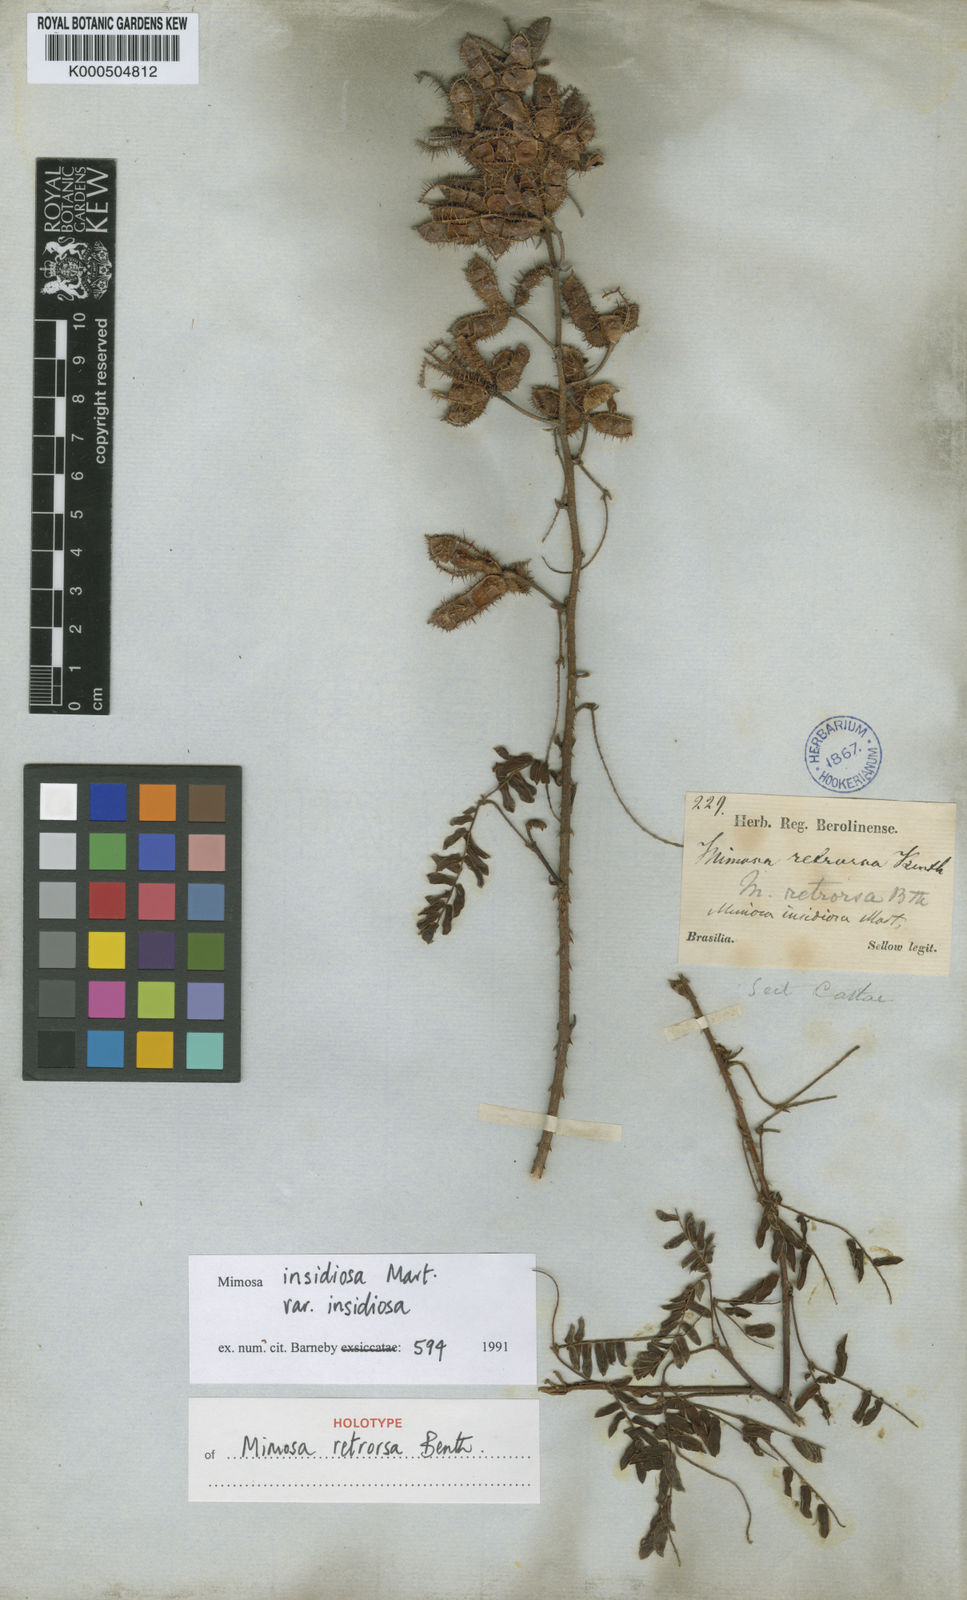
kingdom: Plantae
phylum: Tracheophyta
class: Magnoliopsida
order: Fabales
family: Fabaceae
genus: Mimosa
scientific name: Mimosa insidiosa
